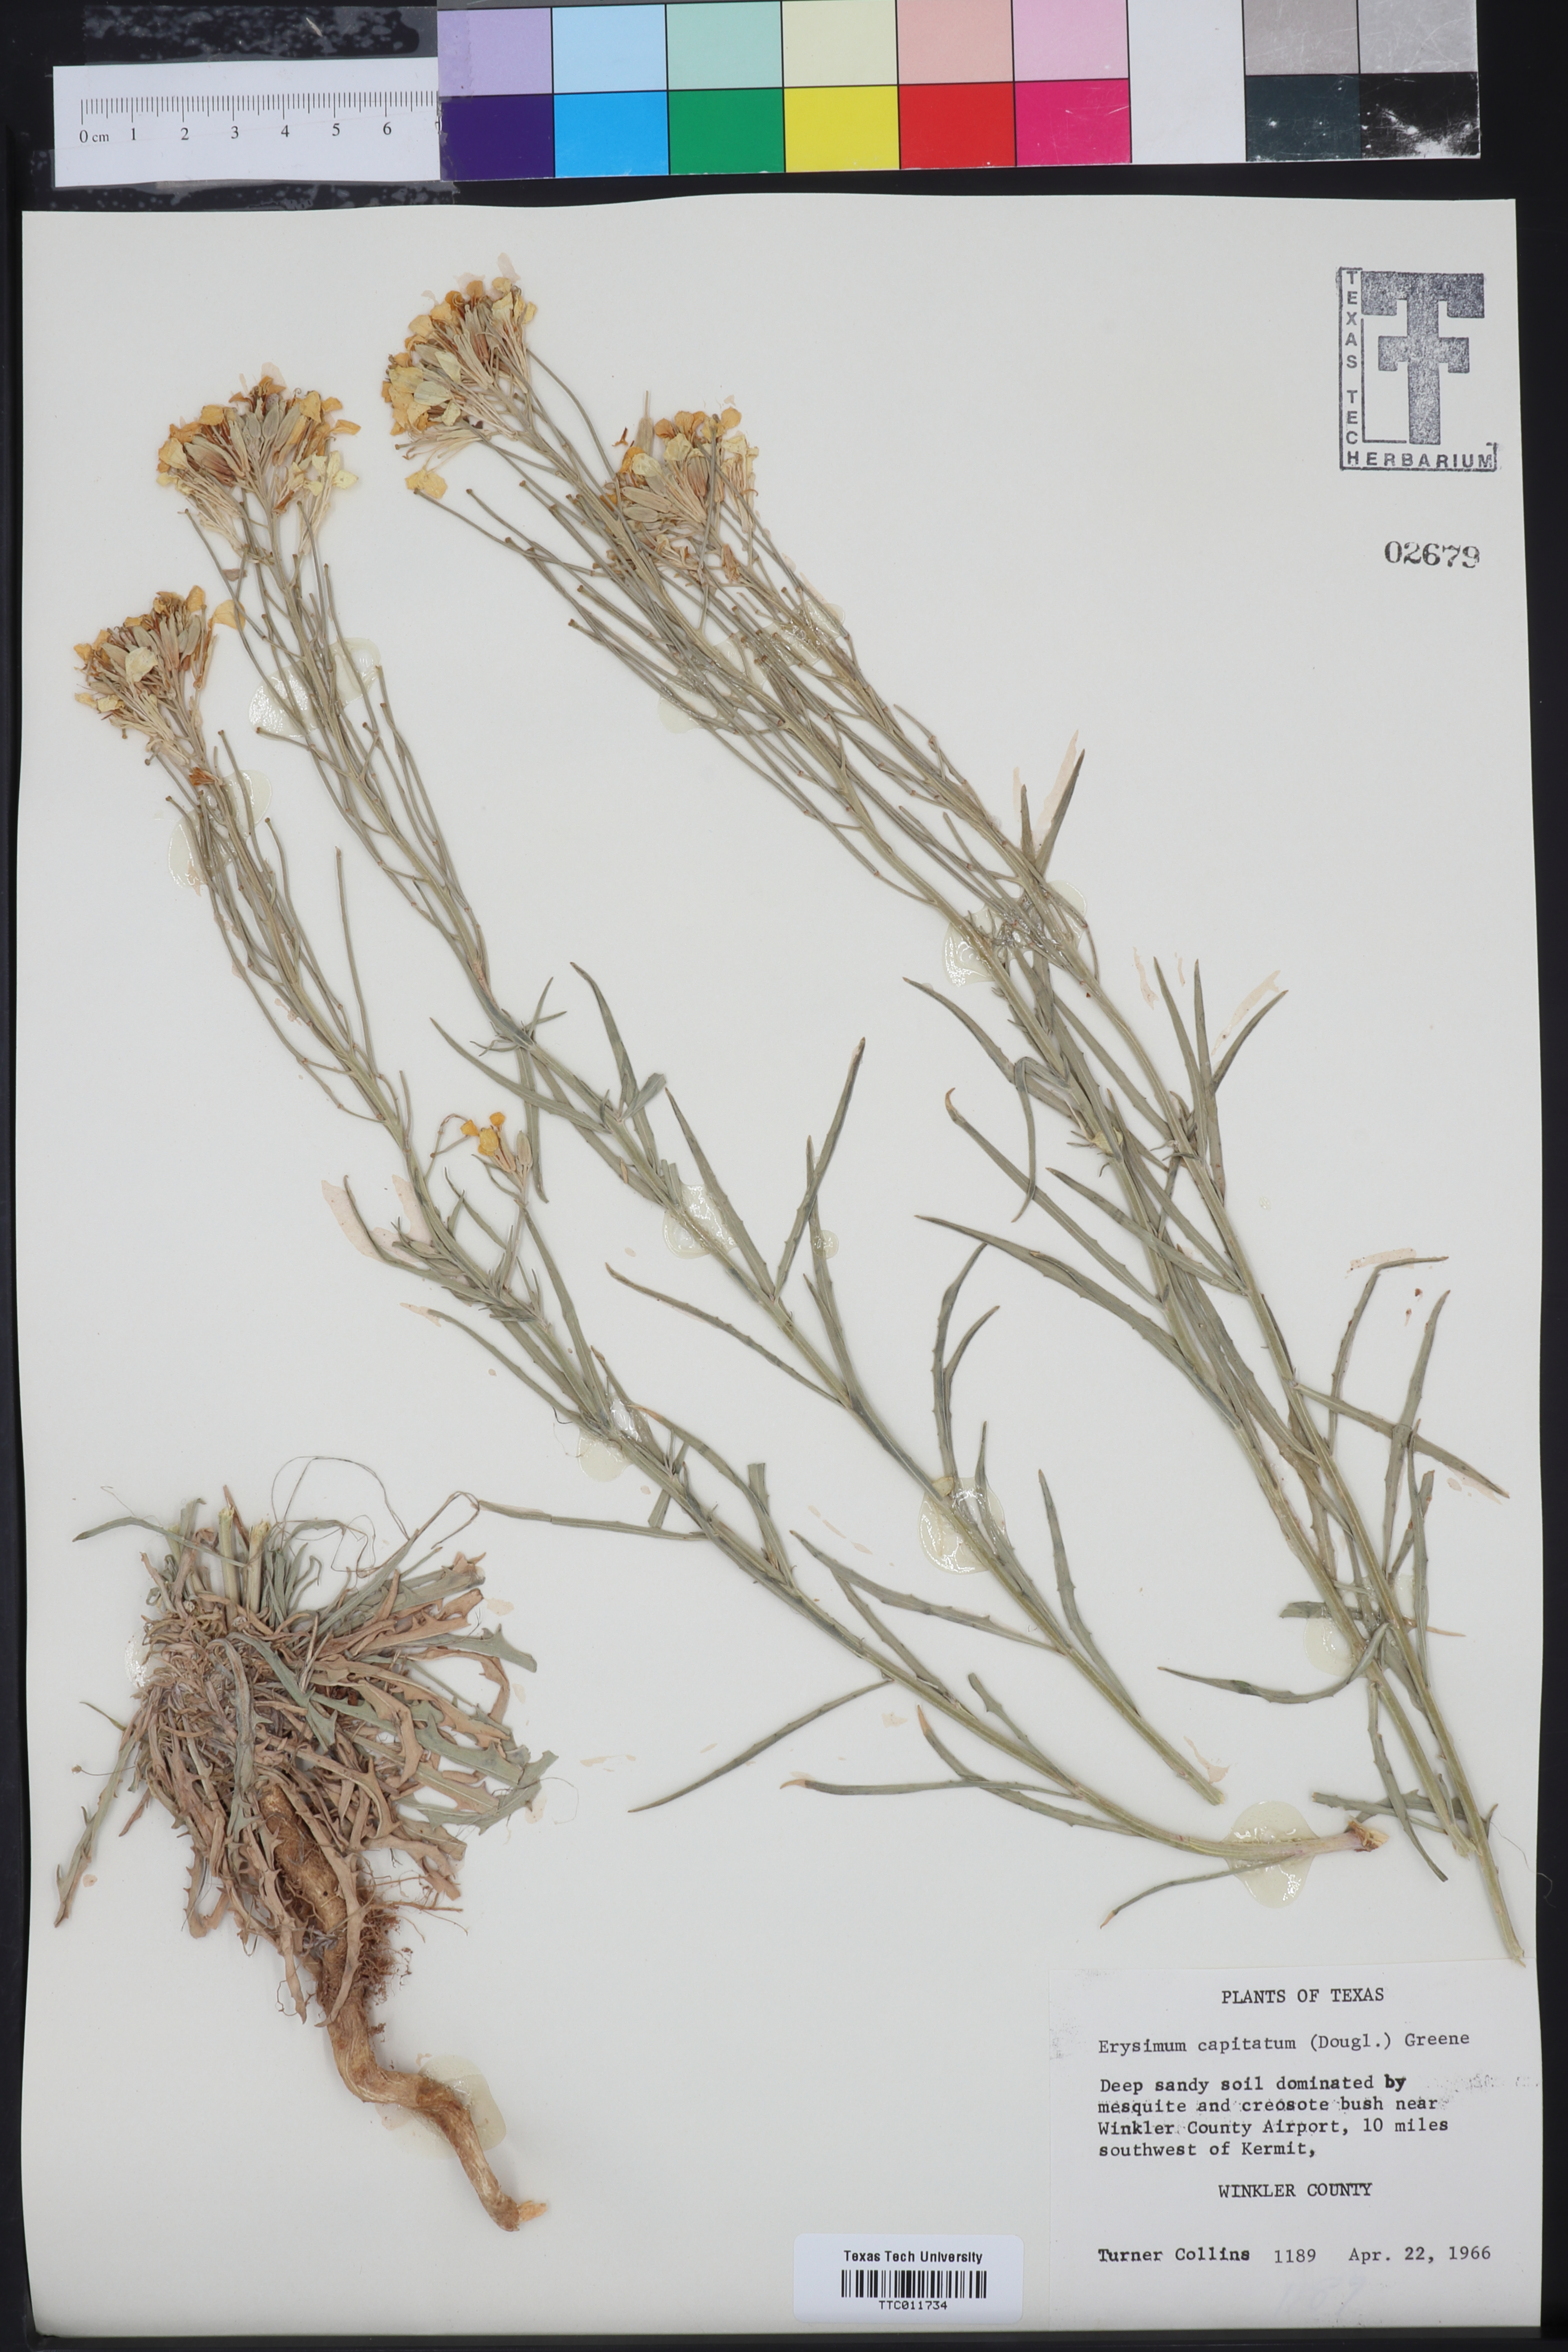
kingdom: Plantae
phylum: Tracheophyta
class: Magnoliopsida
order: Brassicales
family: Brassicaceae
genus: Erysimum
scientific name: Erysimum capitatum
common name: Western wallflower
